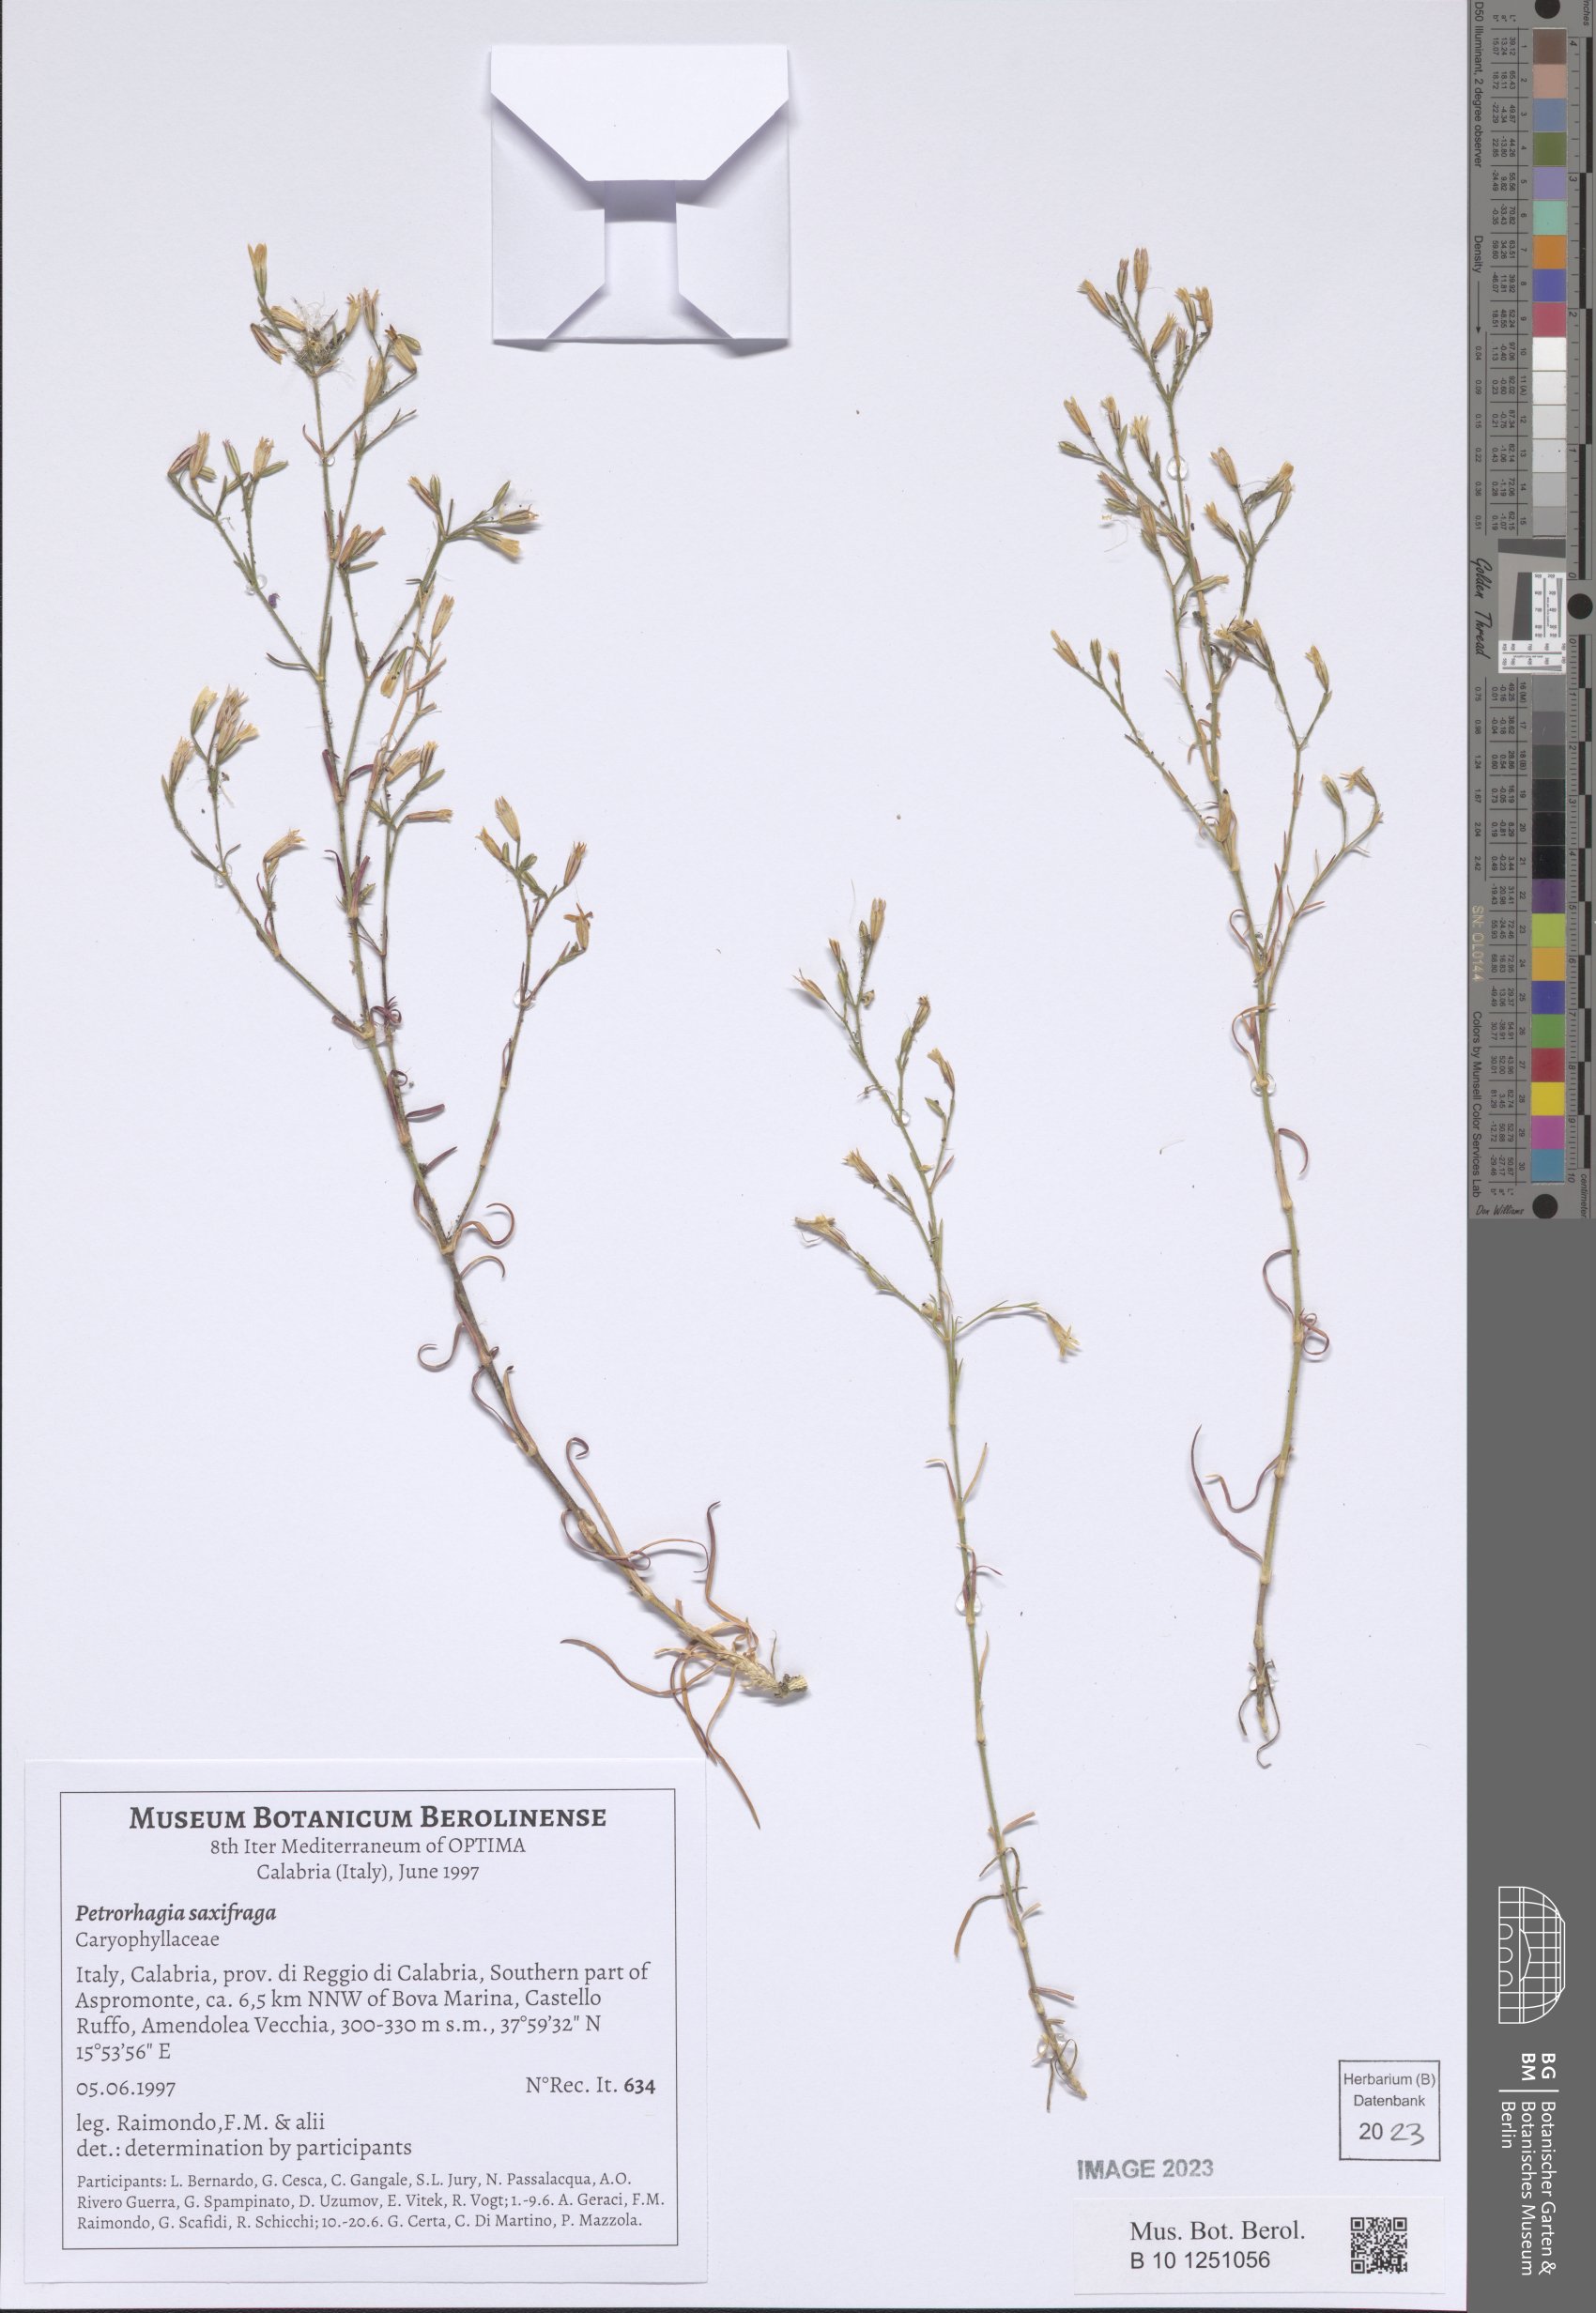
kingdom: Plantae
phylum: Tracheophyta
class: Magnoliopsida
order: Caryophyllales
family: Caryophyllaceae
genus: Petrorhagia
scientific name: Petrorhagia saxifraga
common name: Tunicflower
